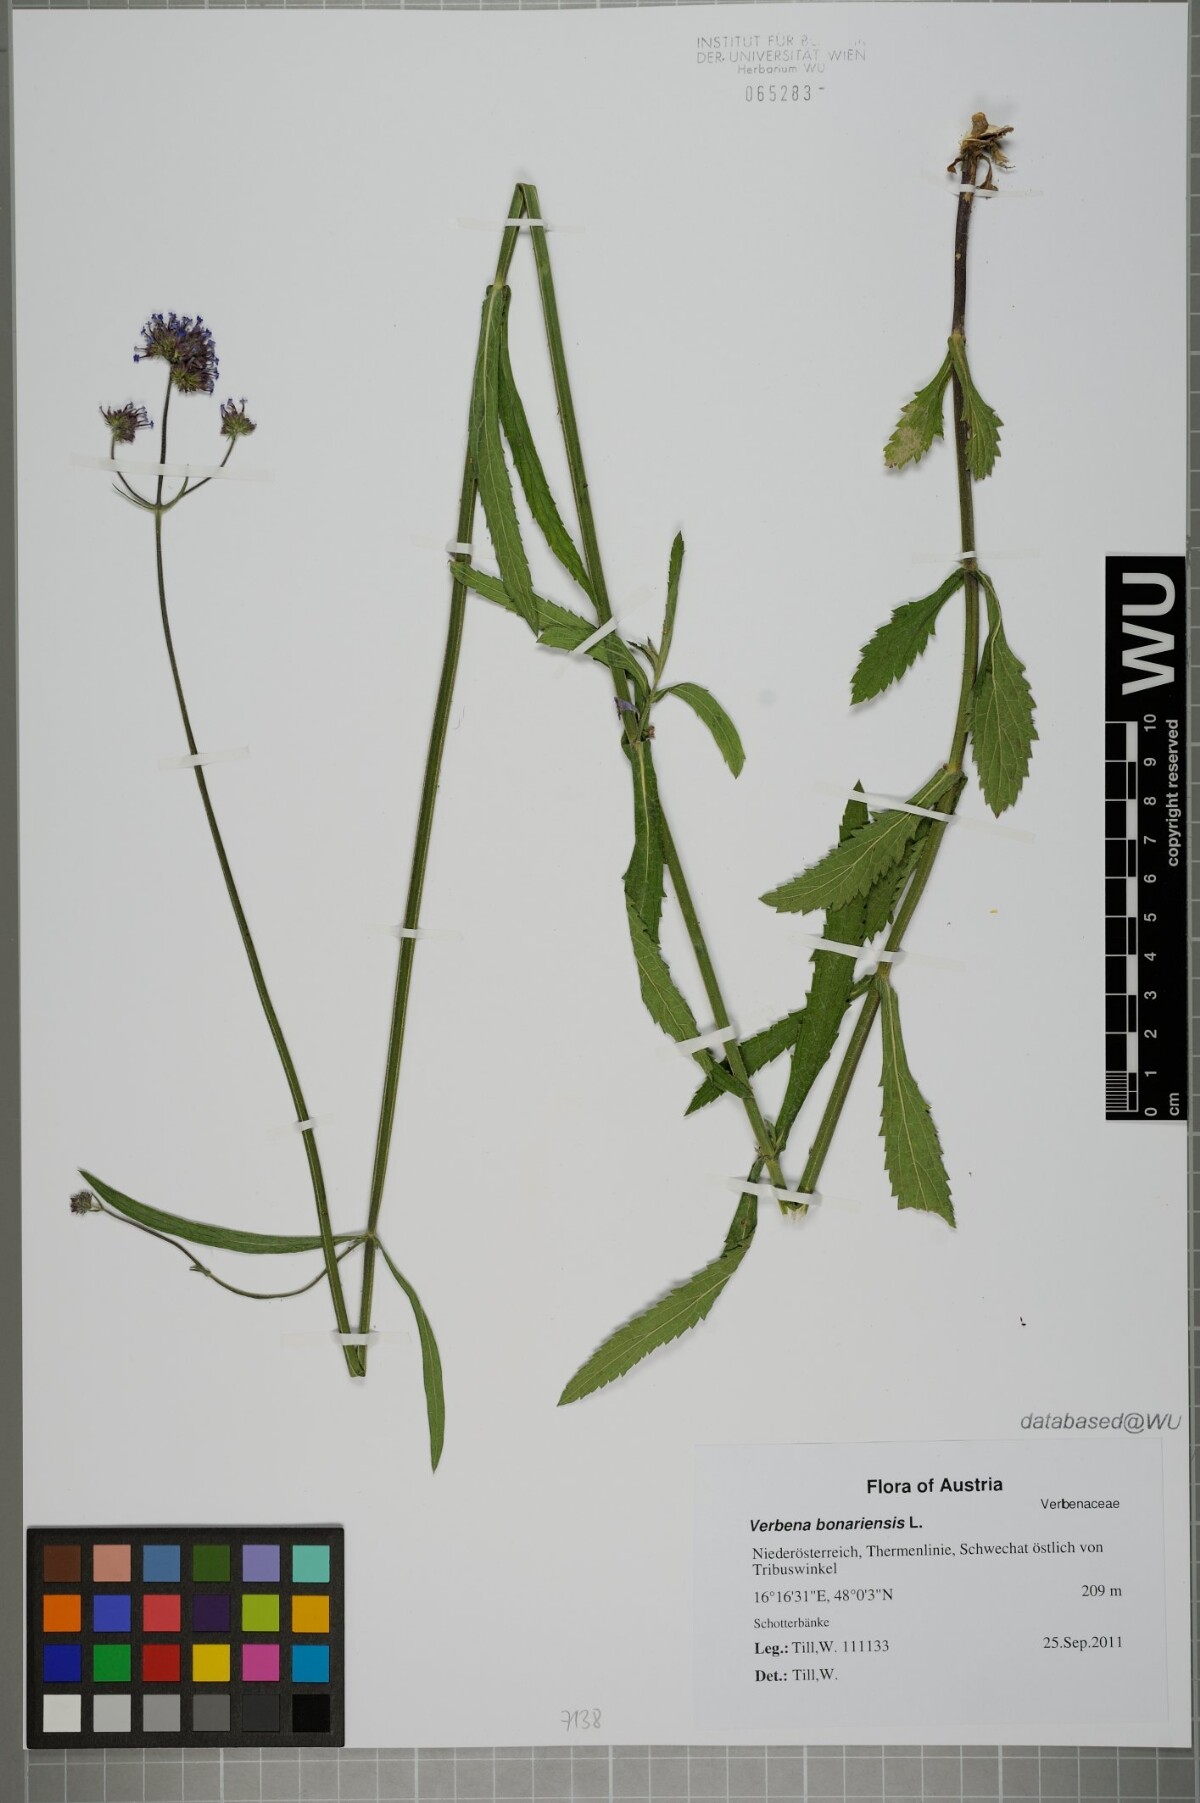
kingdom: Plantae
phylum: Tracheophyta
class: Magnoliopsida
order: Lamiales
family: Verbenaceae
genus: Verbena
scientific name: Verbena bonariensis
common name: Purpletop vervain
